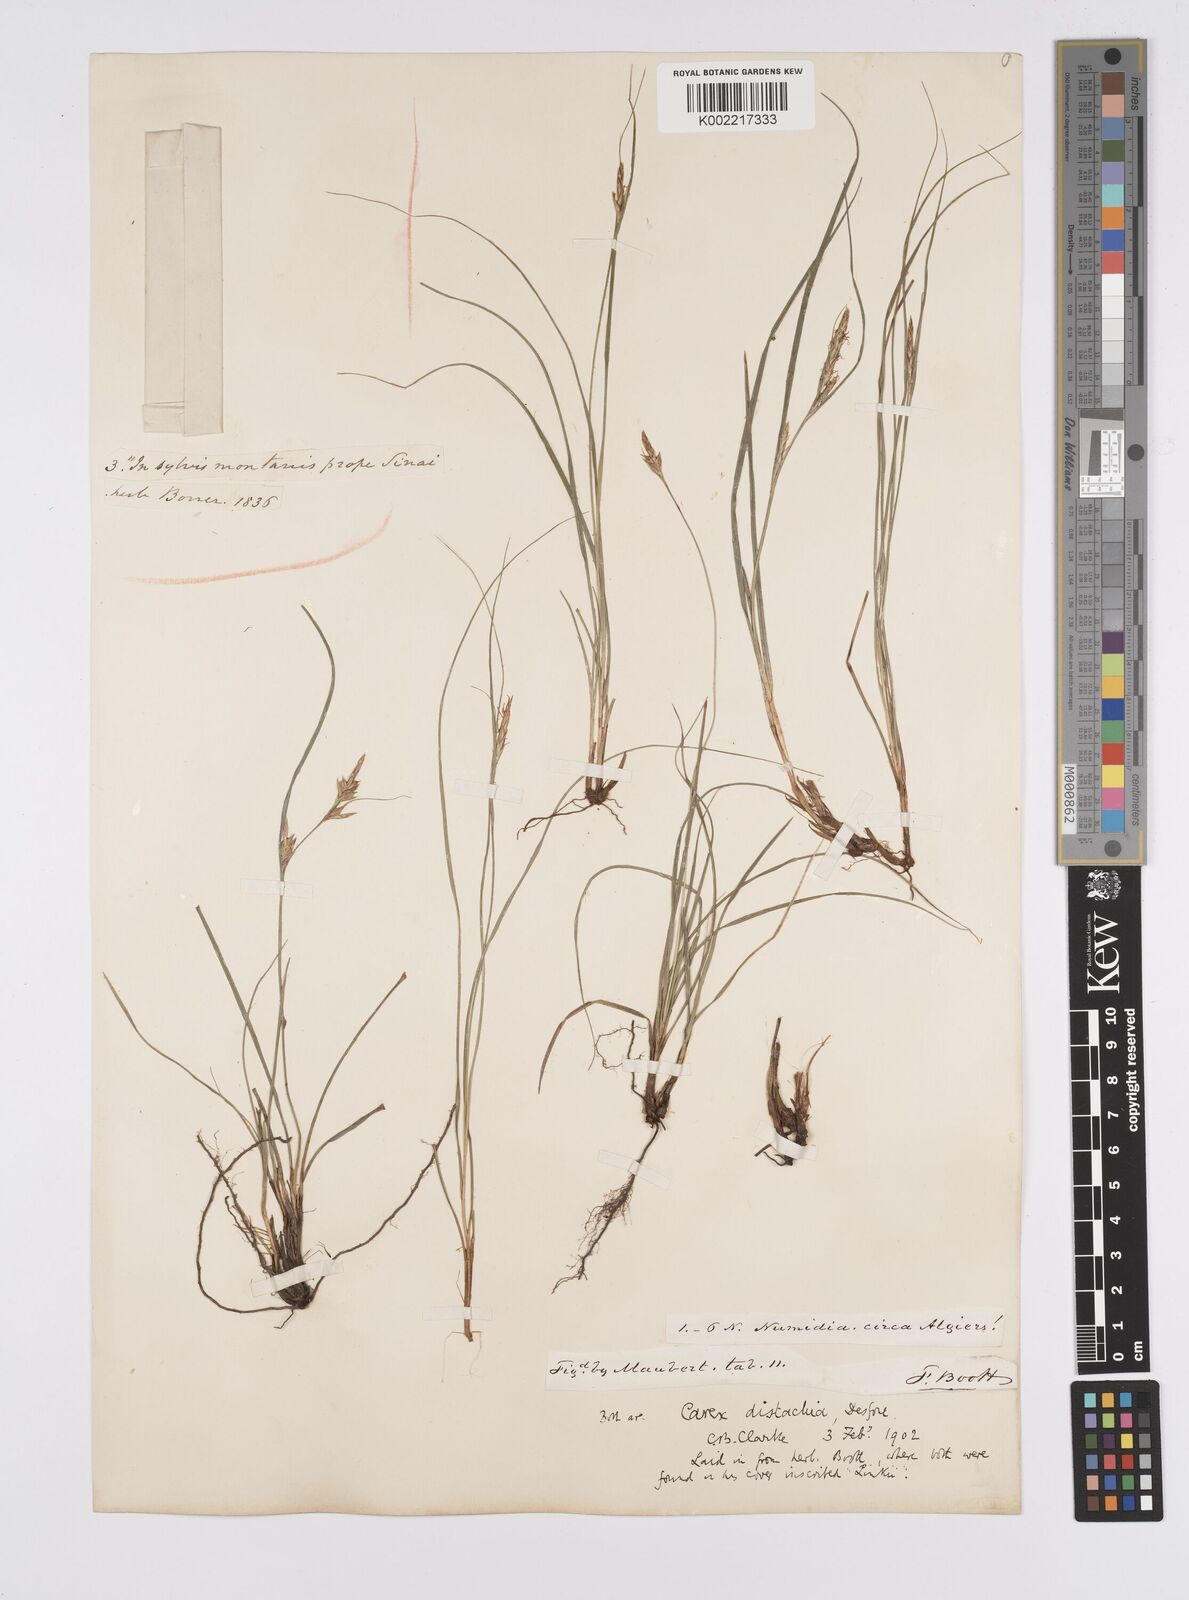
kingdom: Plantae
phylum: Tracheophyta
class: Liliopsida
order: Poales
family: Cyperaceae
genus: Carex
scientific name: Carex distachya
